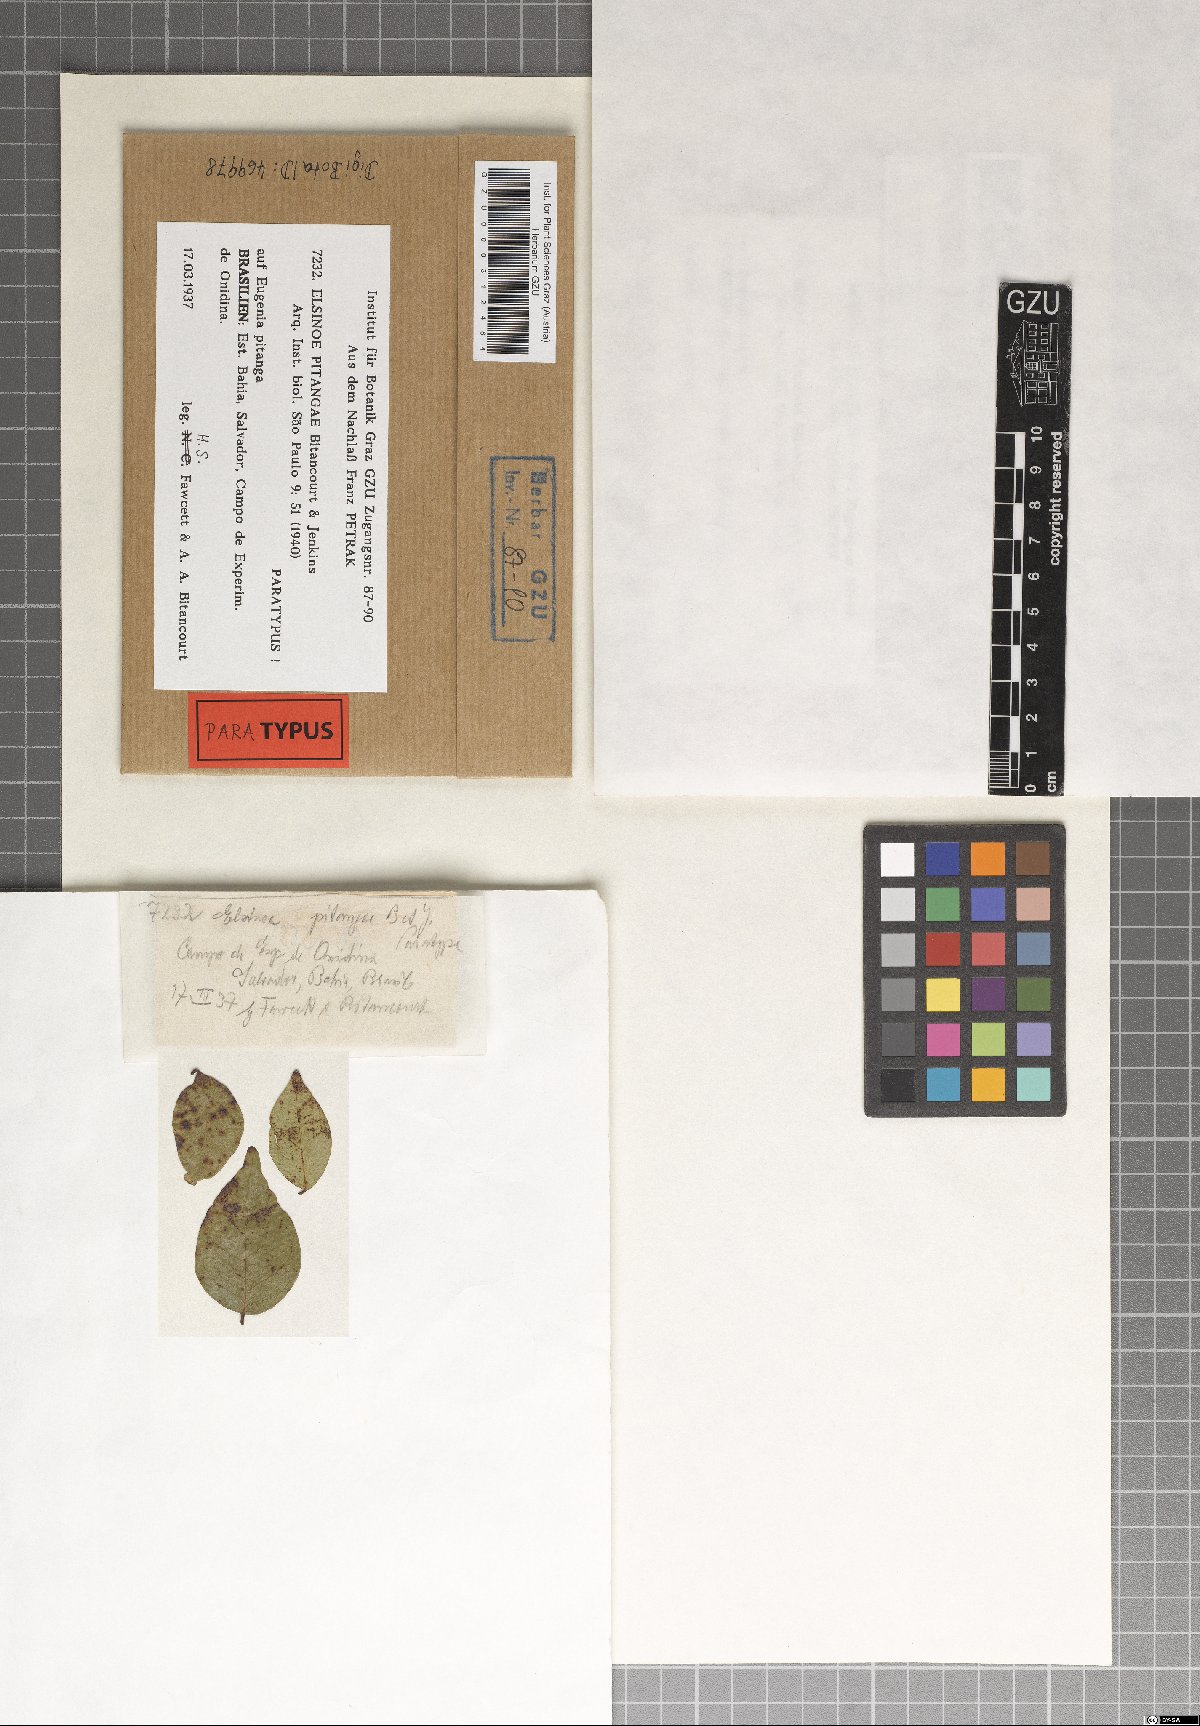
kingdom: Fungi
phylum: Ascomycota
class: Dothideomycetes
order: Myriangiales
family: Elsinoaceae
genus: Elsinoe
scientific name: Elsinoe pitangae
